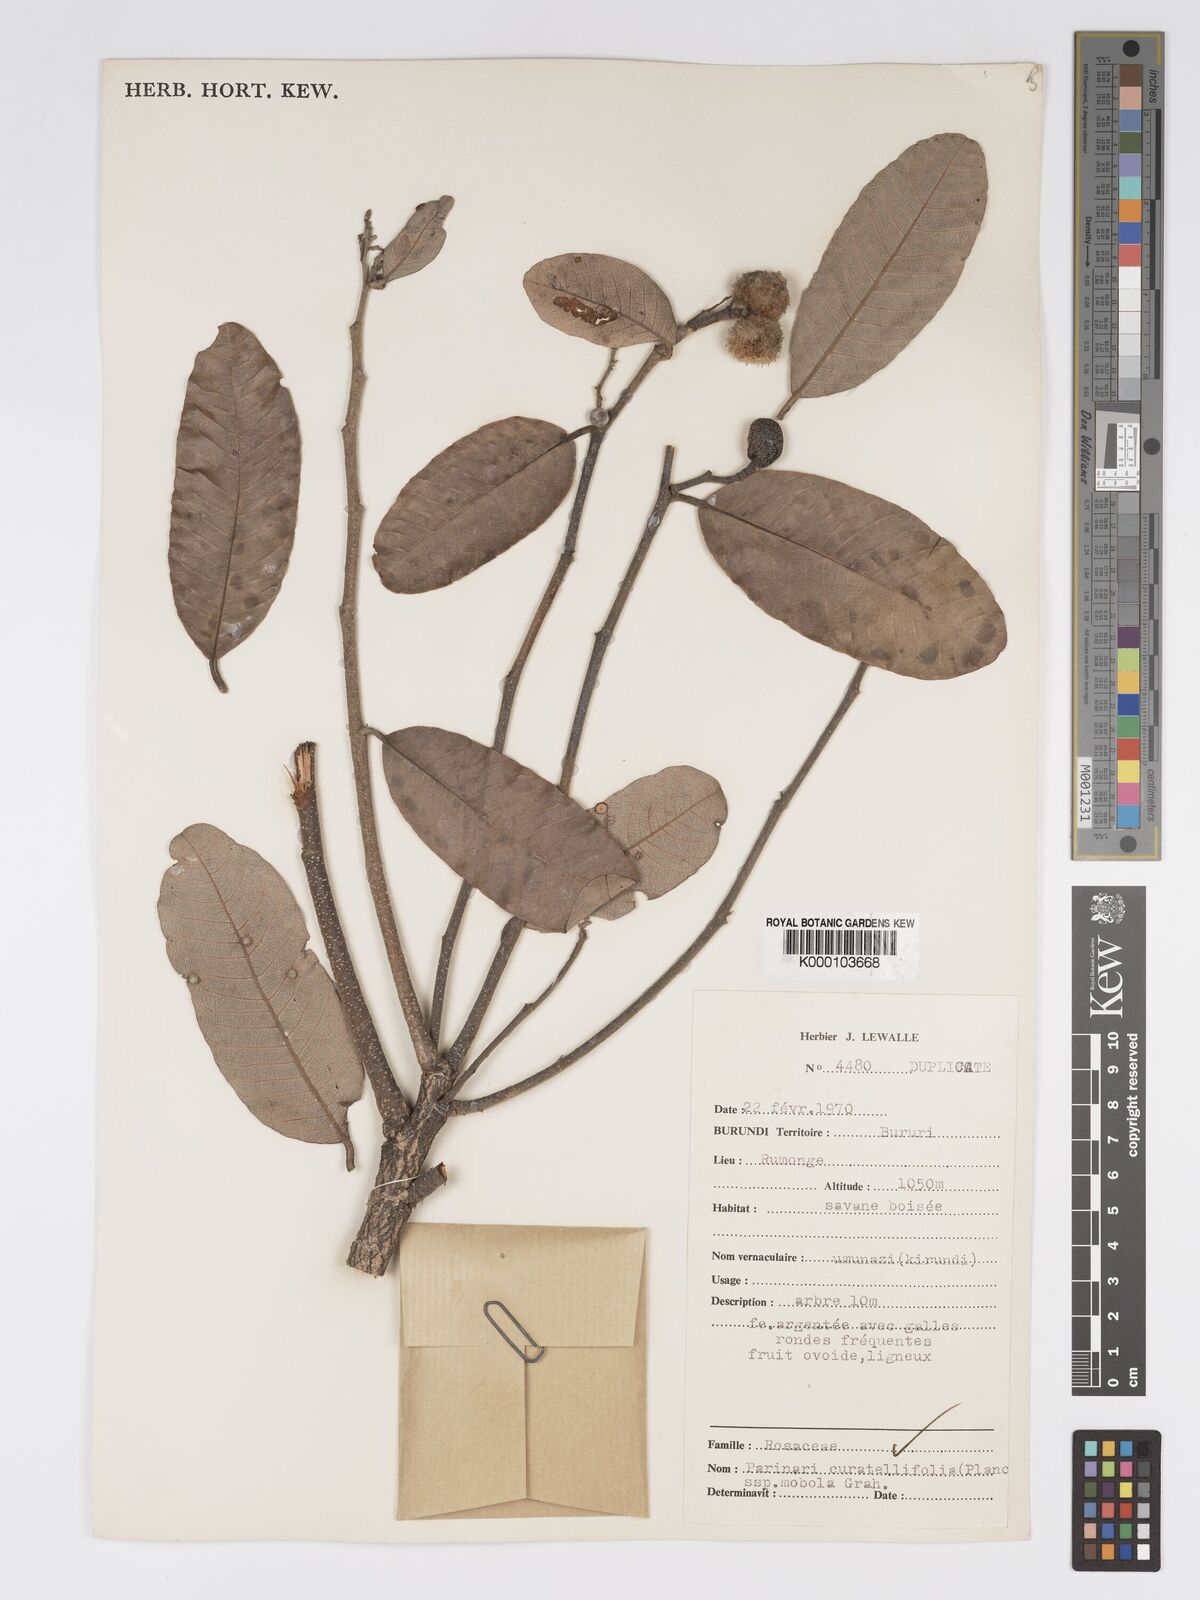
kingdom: Plantae
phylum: Tracheophyta
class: Magnoliopsida
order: Malpighiales
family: Chrysobalanaceae
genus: Parinari
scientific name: Parinari curatellifolia
